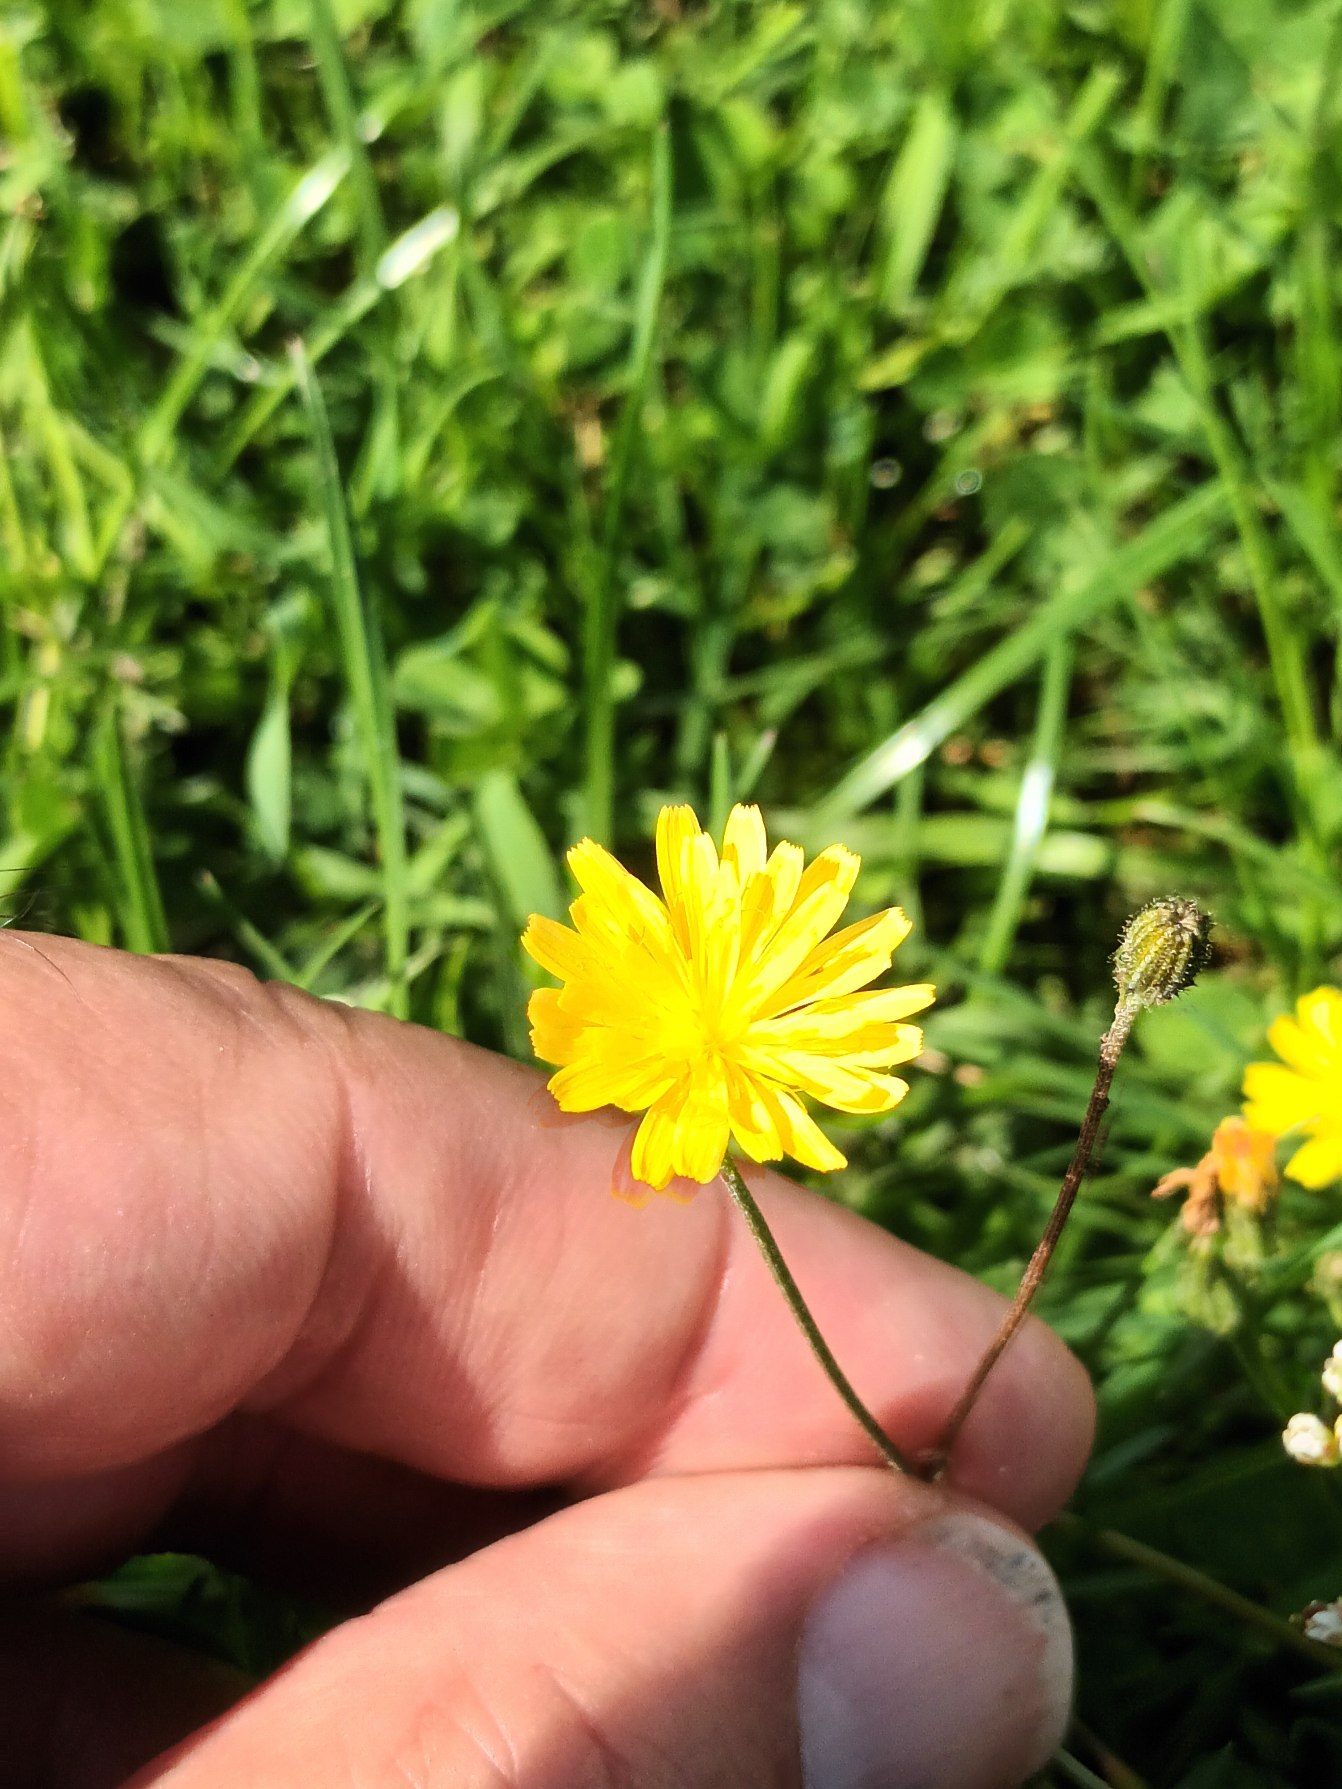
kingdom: Plantae
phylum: Tracheophyta
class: Magnoliopsida
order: Asterales
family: Asteraceae
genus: Crepis
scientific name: Crepis capillaris
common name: Grøn høgeskæg
